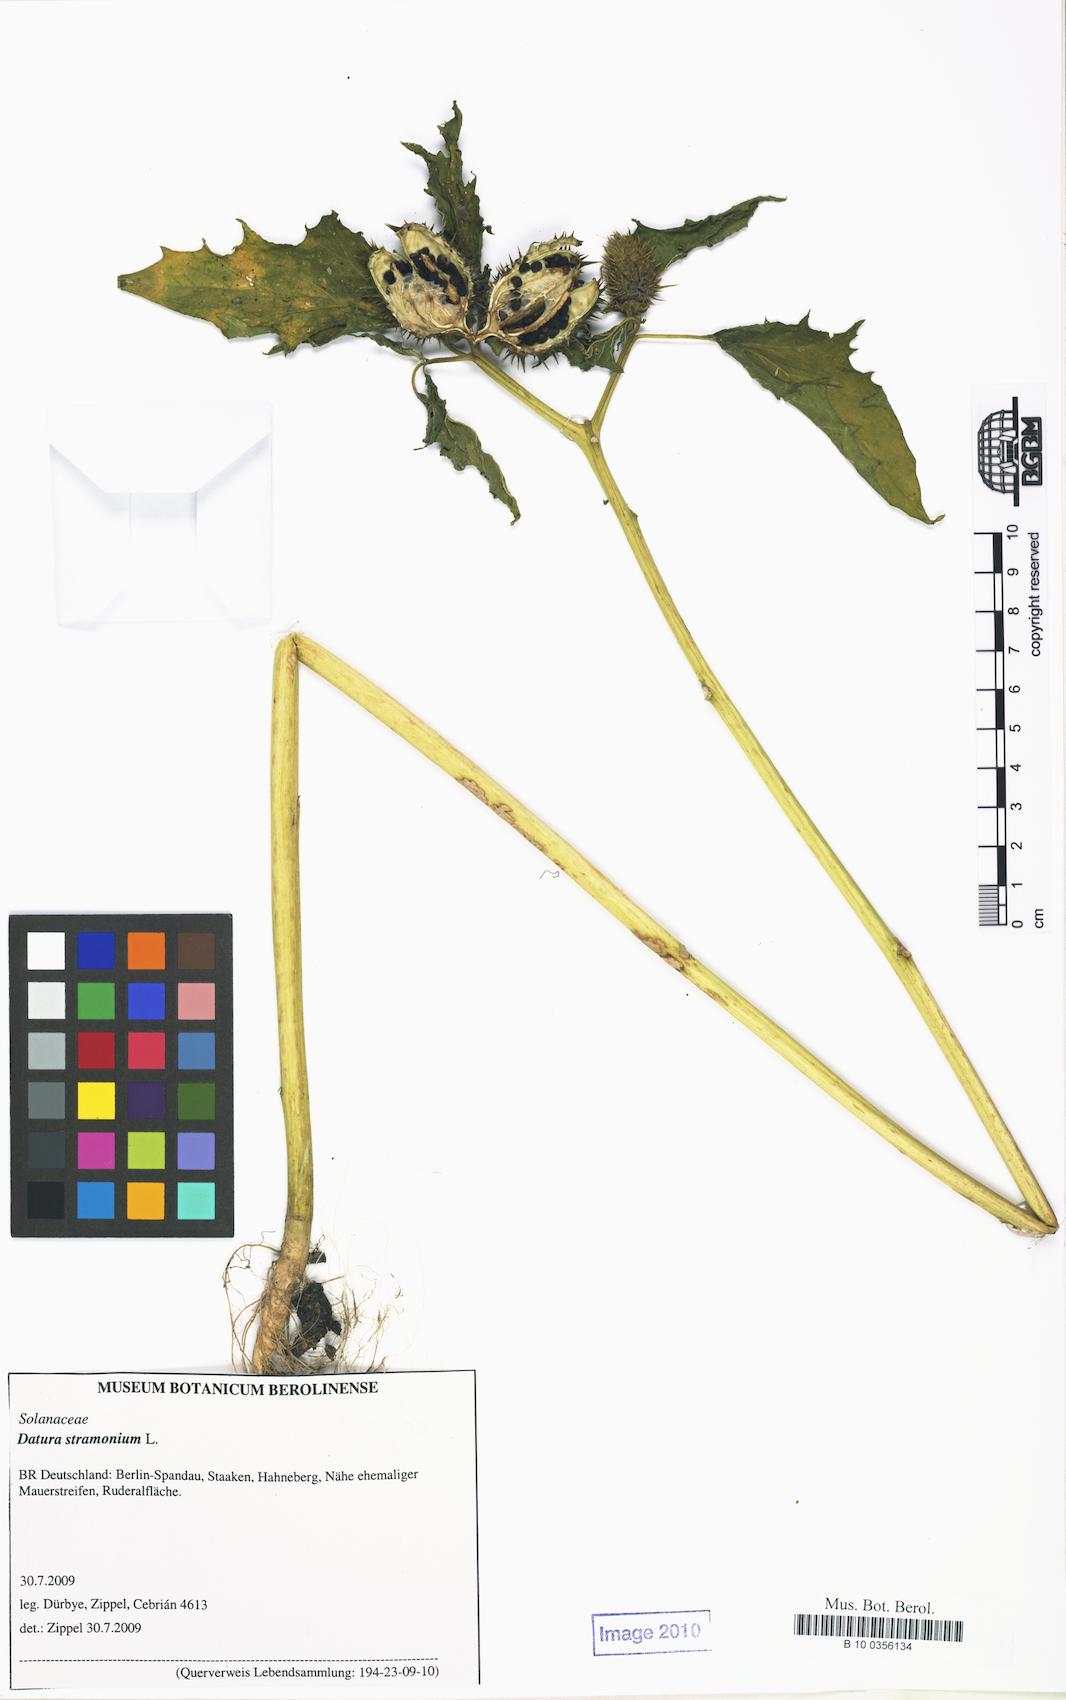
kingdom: Plantae
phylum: Tracheophyta
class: Magnoliopsida
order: Solanales
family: Solanaceae
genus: Datura
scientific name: Datura stramonium
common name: Thorn-apple
